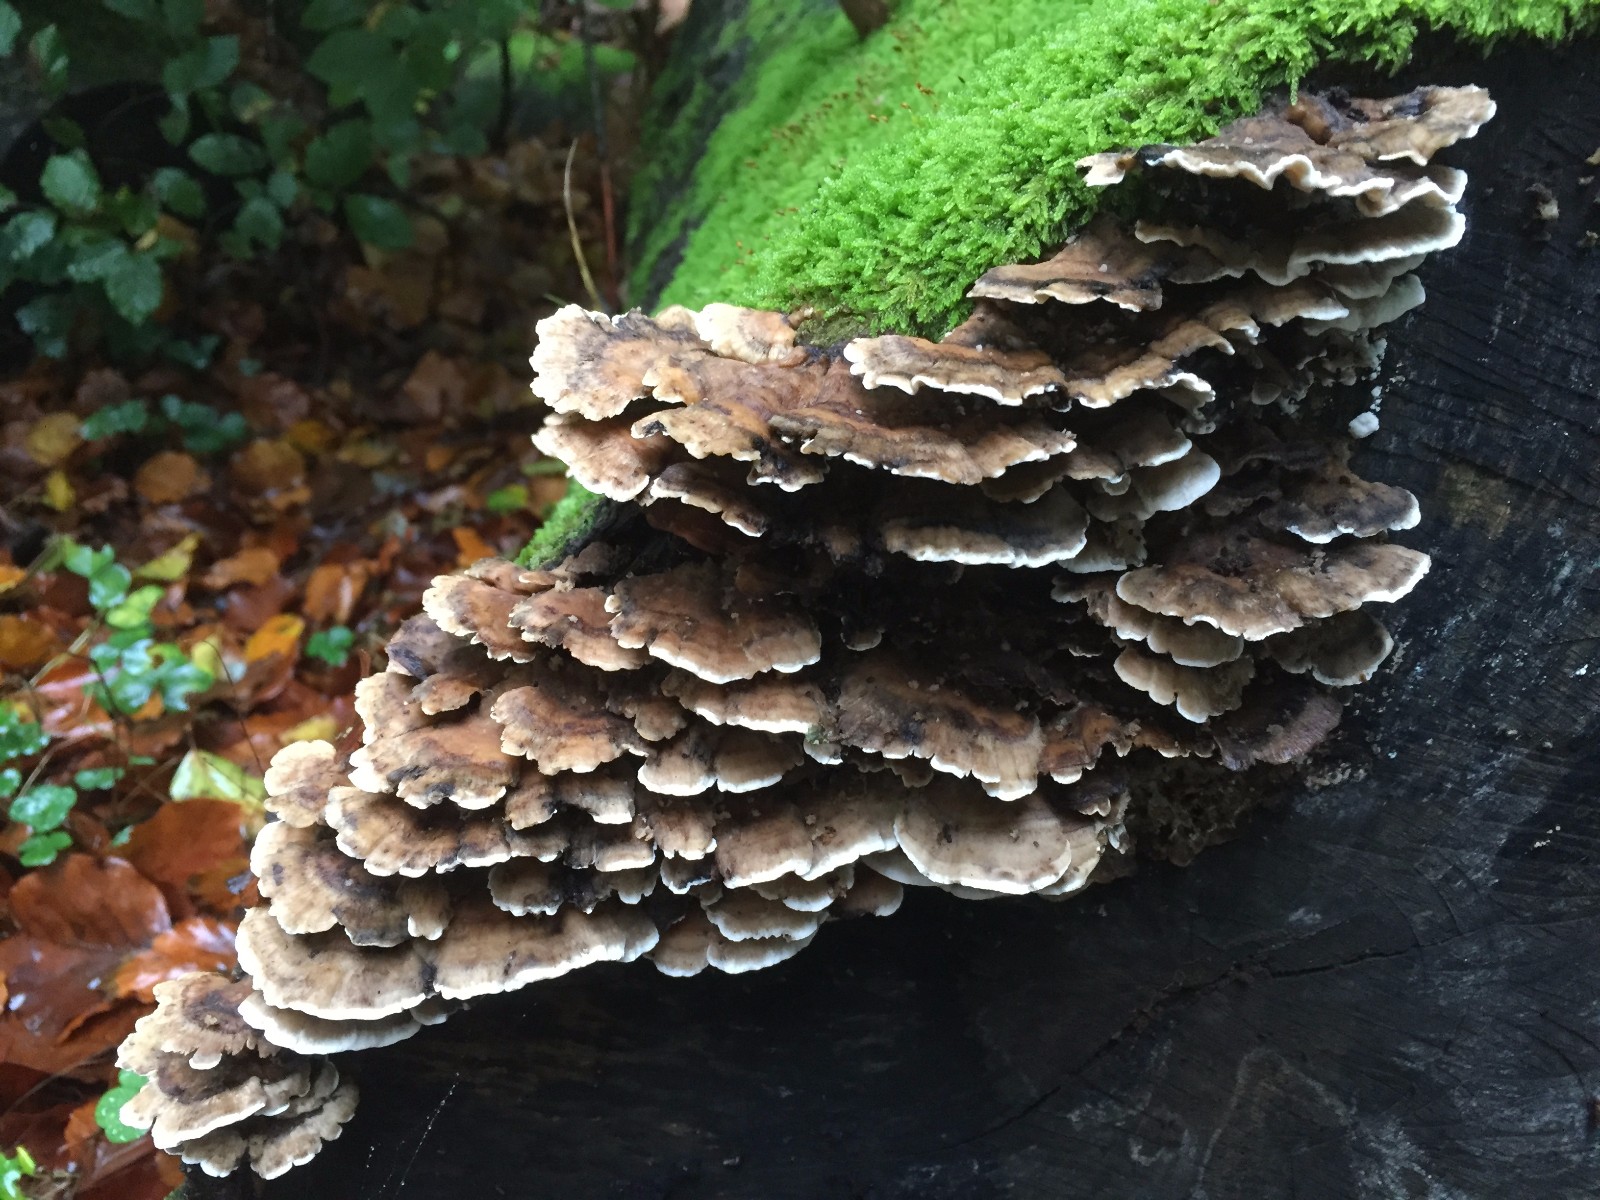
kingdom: Fungi
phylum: Basidiomycota
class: Agaricomycetes
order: Polyporales
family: Phanerochaetaceae
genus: Bjerkandera
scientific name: Bjerkandera adusta
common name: sveden sodporesvamp
